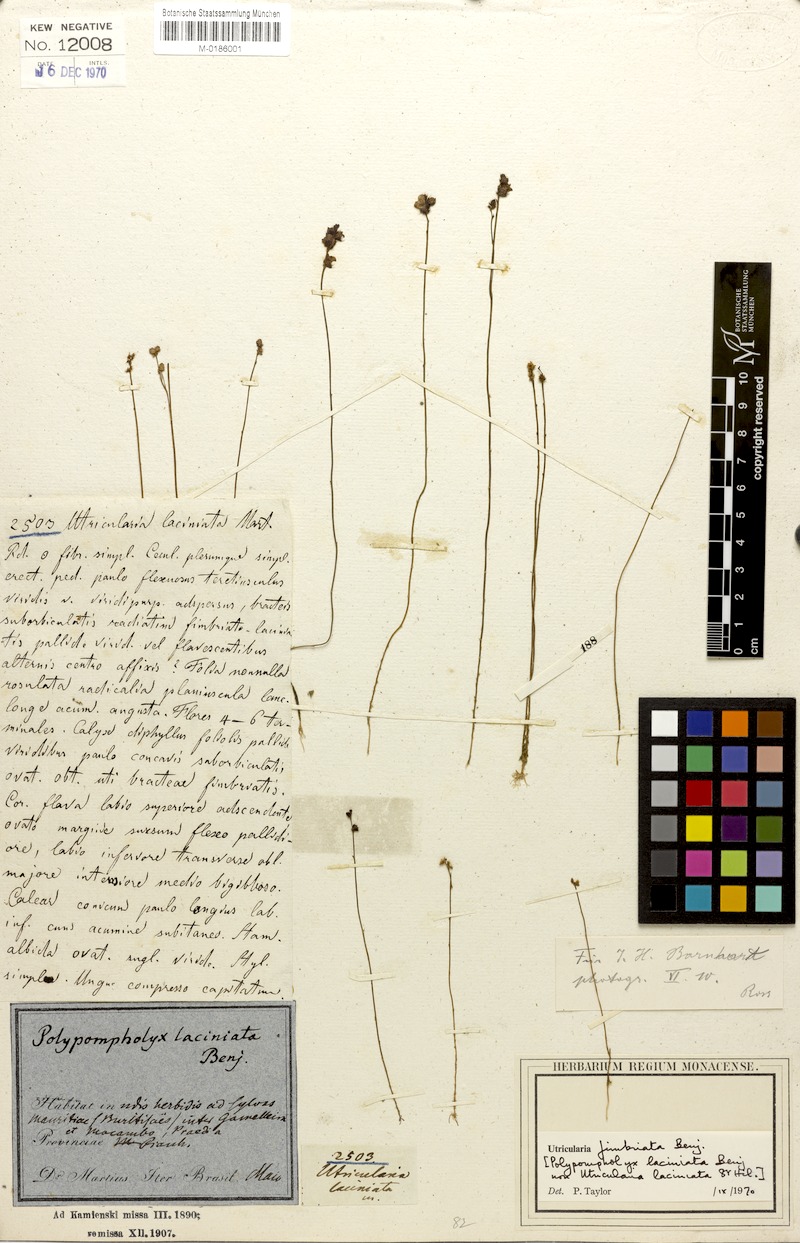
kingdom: Plantae
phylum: Tracheophyta
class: Magnoliopsida
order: Lamiales
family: Lentibulariaceae
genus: Utricularia
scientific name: Utricularia simulans
